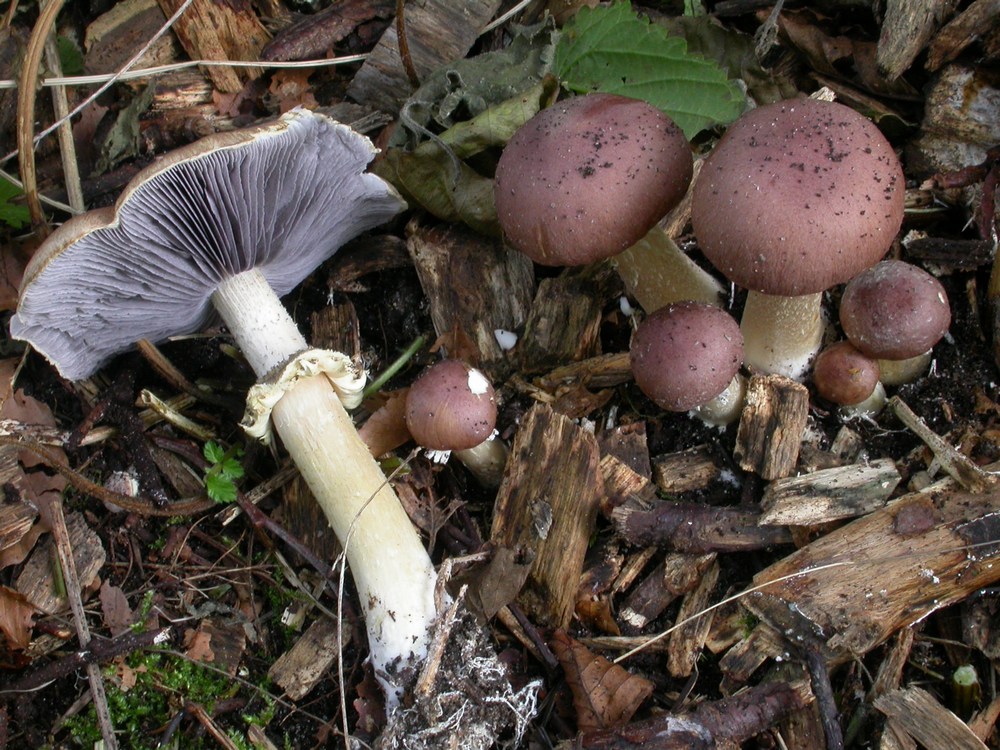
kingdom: Fungi
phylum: Basidiomycota
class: Agaricomycetes
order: Agaricales
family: Strophariaceae
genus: Stropharia
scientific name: Stropharia rugosoannulata
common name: rødbrun bredblad
